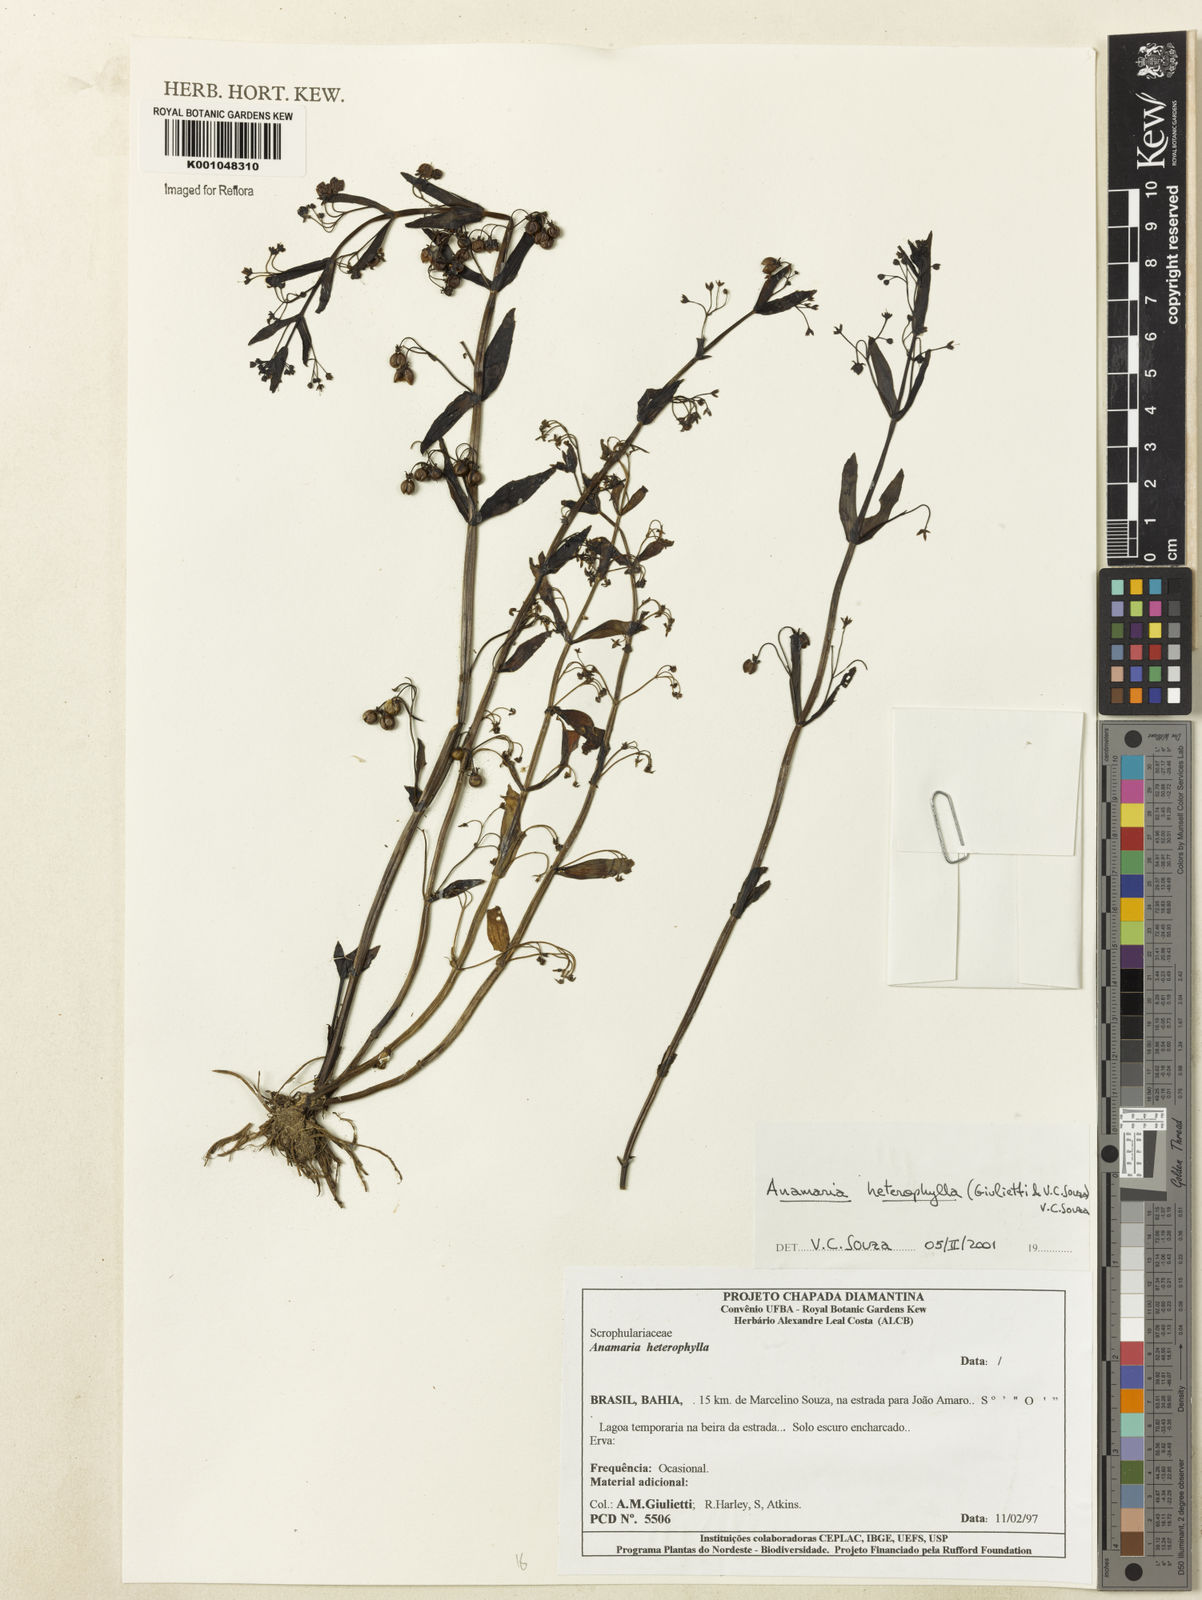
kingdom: Plantae
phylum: Tracheophyta
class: Magnoliopsida
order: Lamiales
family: Plantaginaceae
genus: Anamaria
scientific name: Anamaria heterophylla
